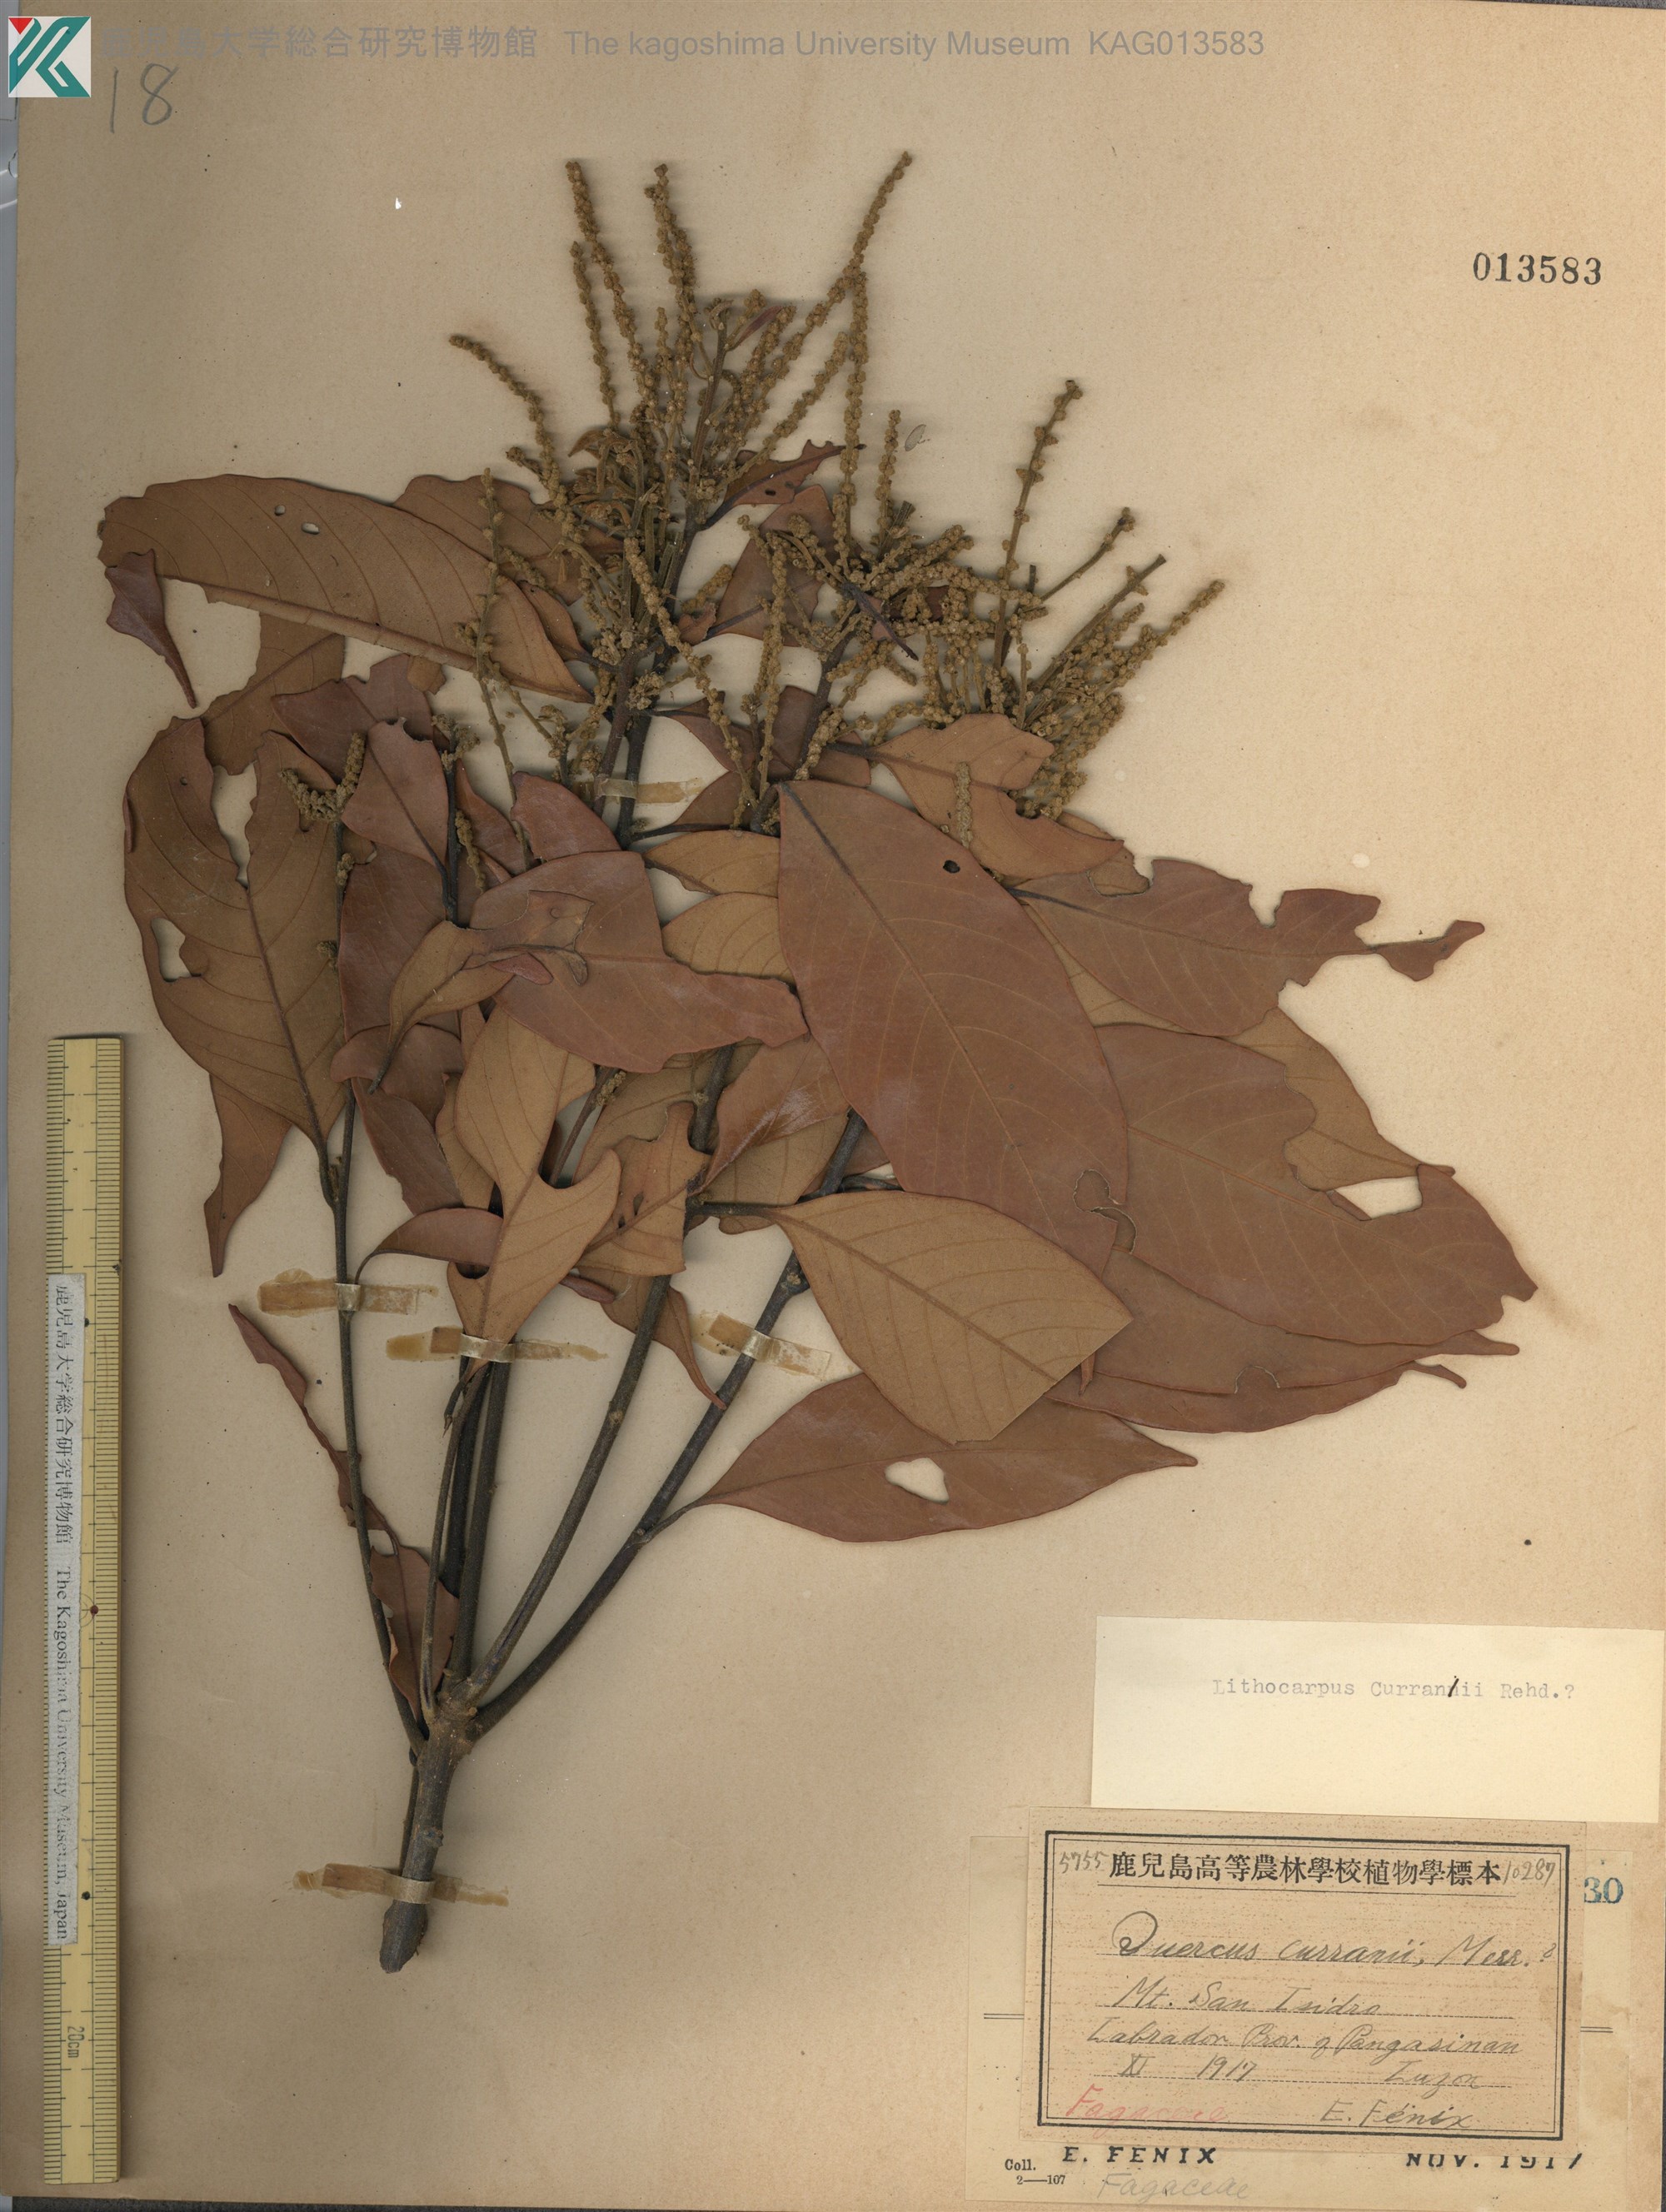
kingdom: Plantae
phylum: Tracheophyta
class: Magnoliopsida
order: Fagales
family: Fagaceae
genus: Lithocarpus
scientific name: Lithocarpus rotundatus
